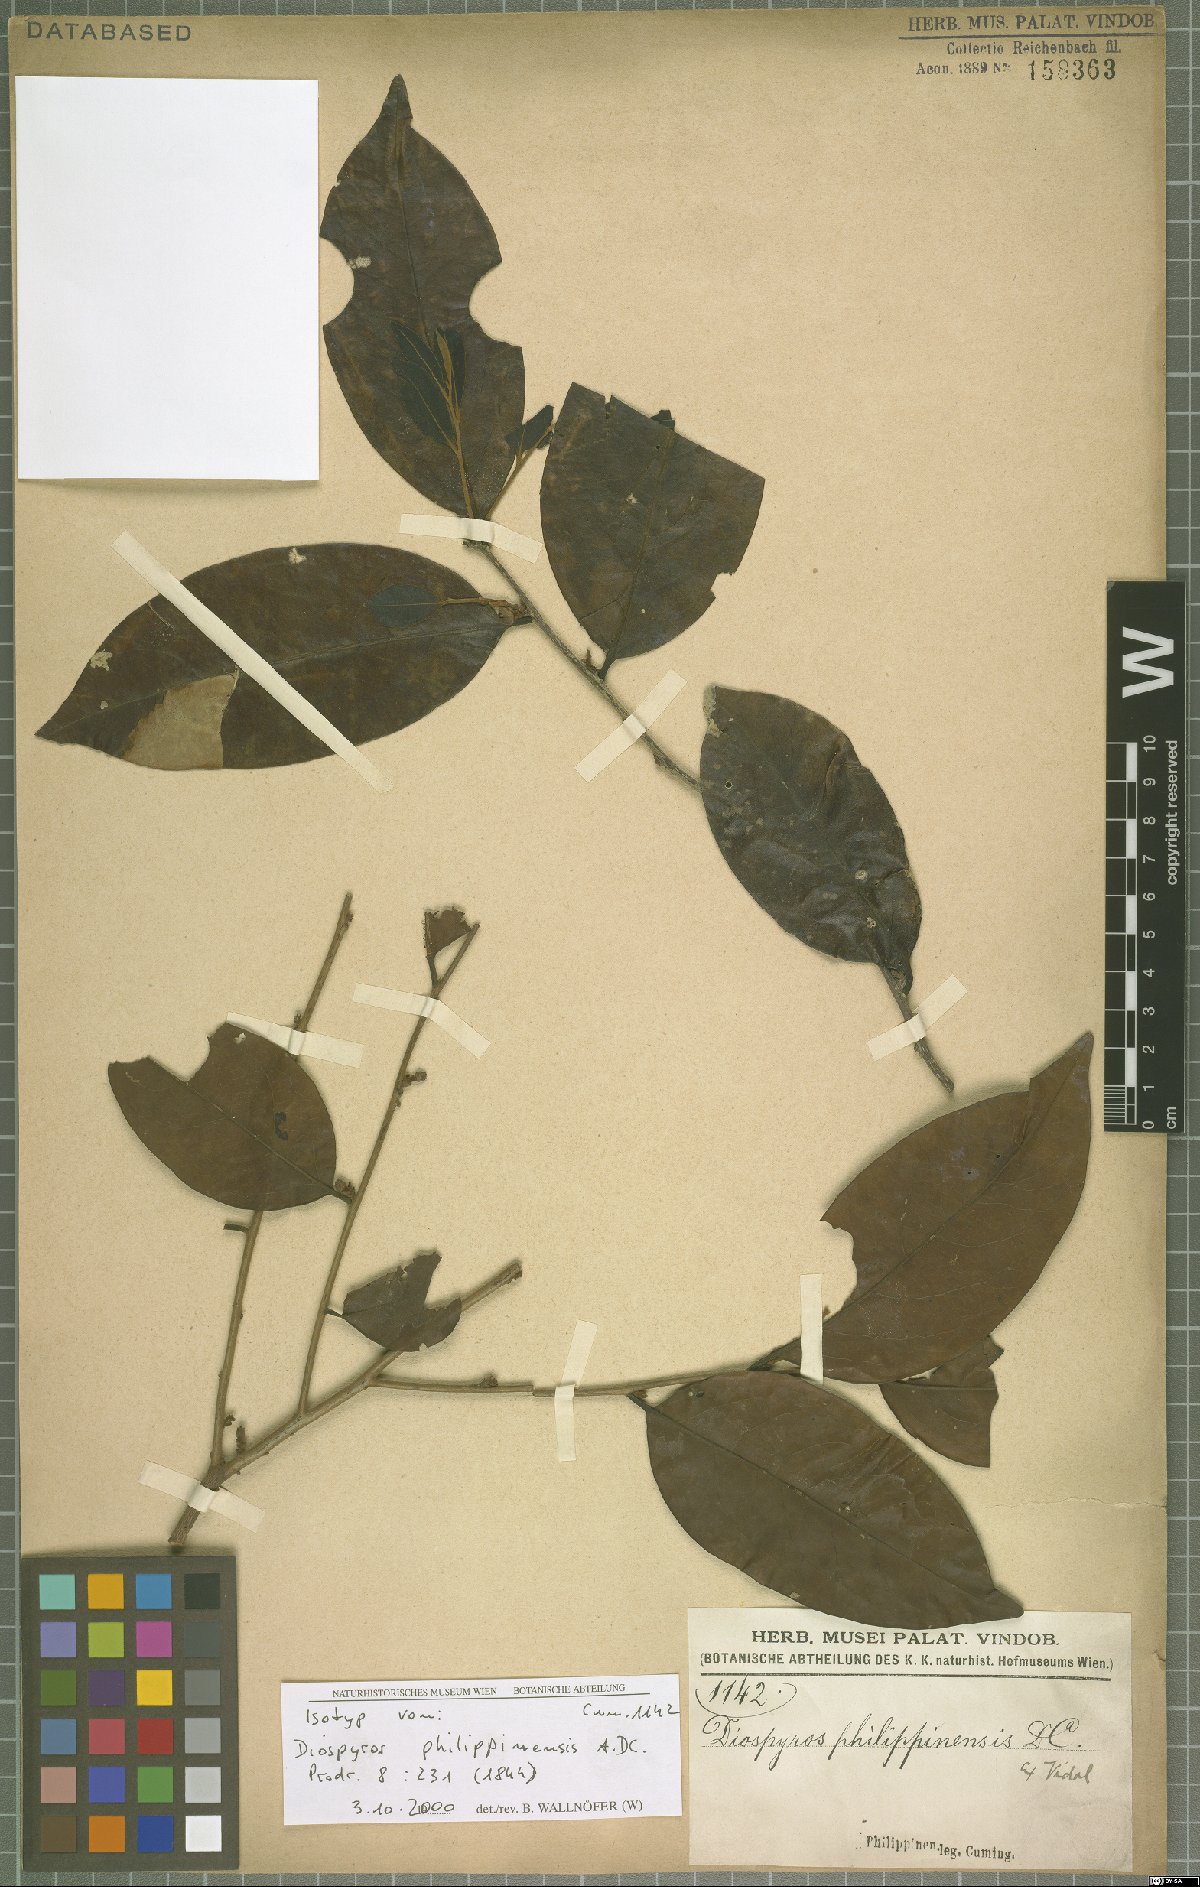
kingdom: Plantae
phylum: Tracheophyta
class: Magnoliopsida
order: Ericales
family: Ebenaceae
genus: Diospyros
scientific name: Diospyros philippinensis
